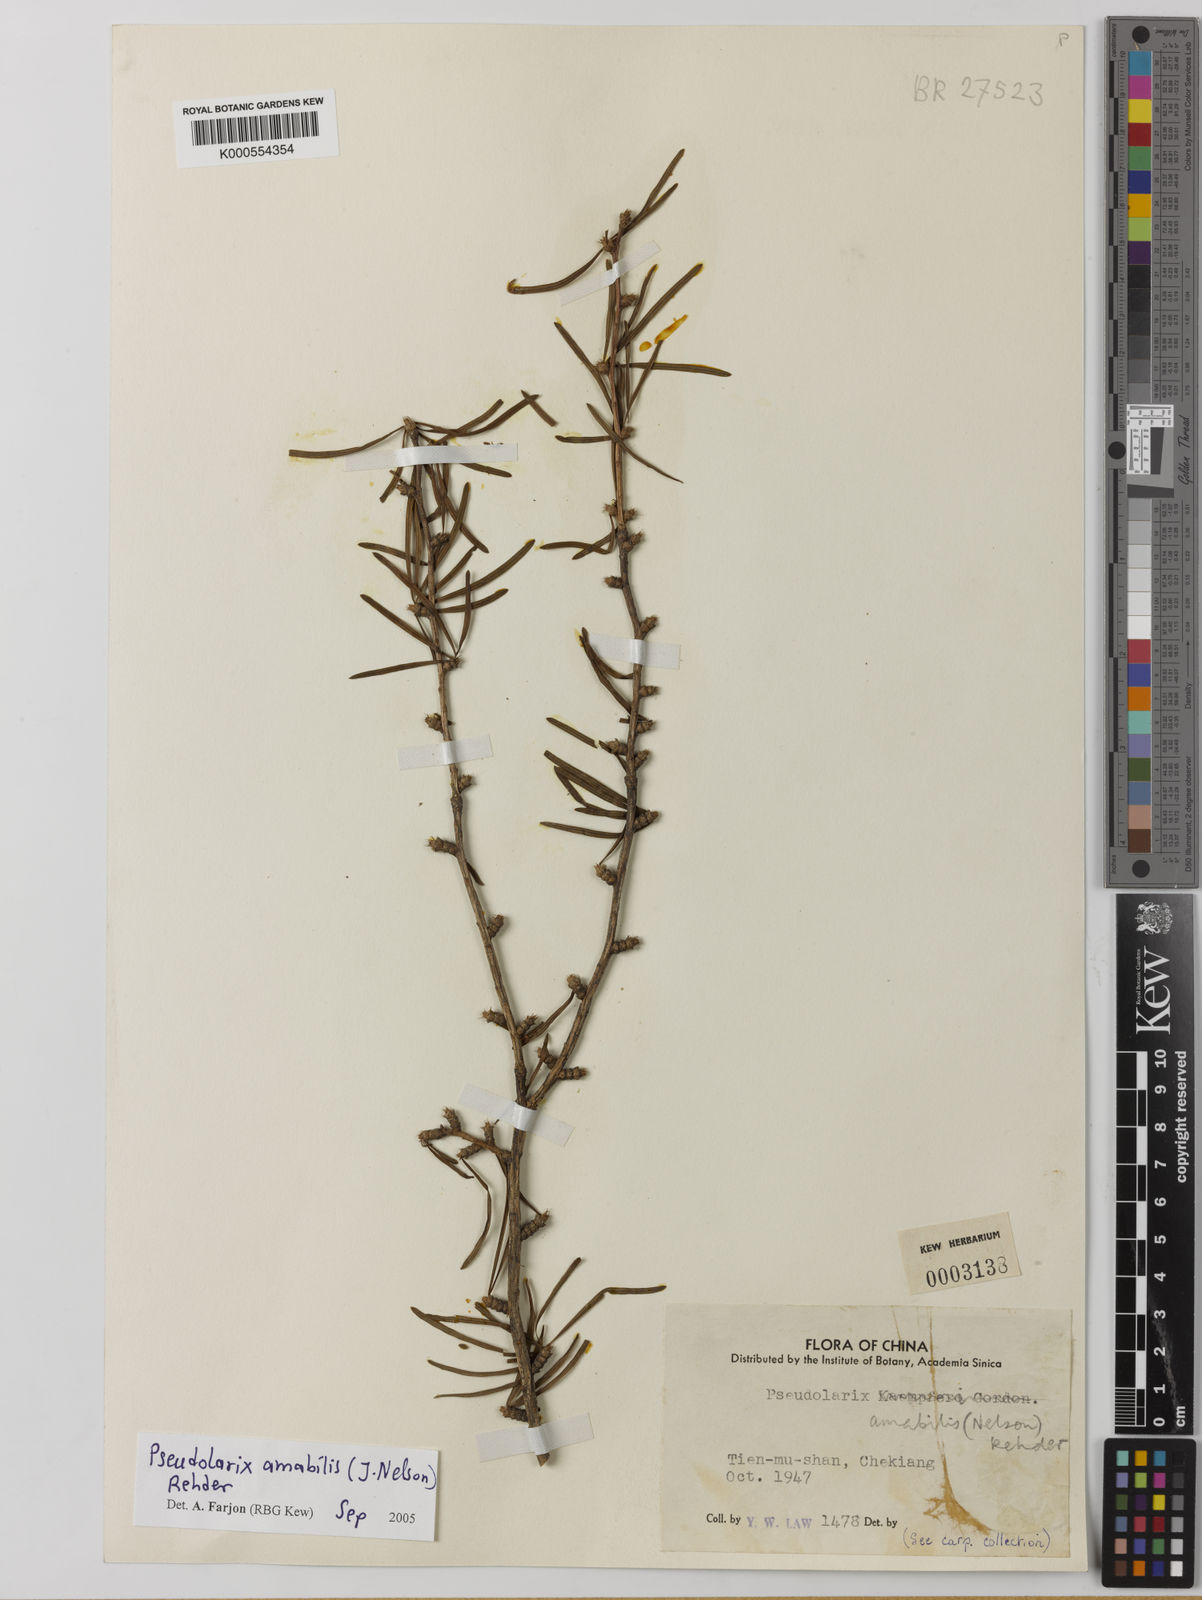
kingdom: Plantae
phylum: Tracheophyta
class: Pinopsida
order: Pinales
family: Pinaceae
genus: Pseudolarix
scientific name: Pseudolarix amabilis
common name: Chinese golden larch
